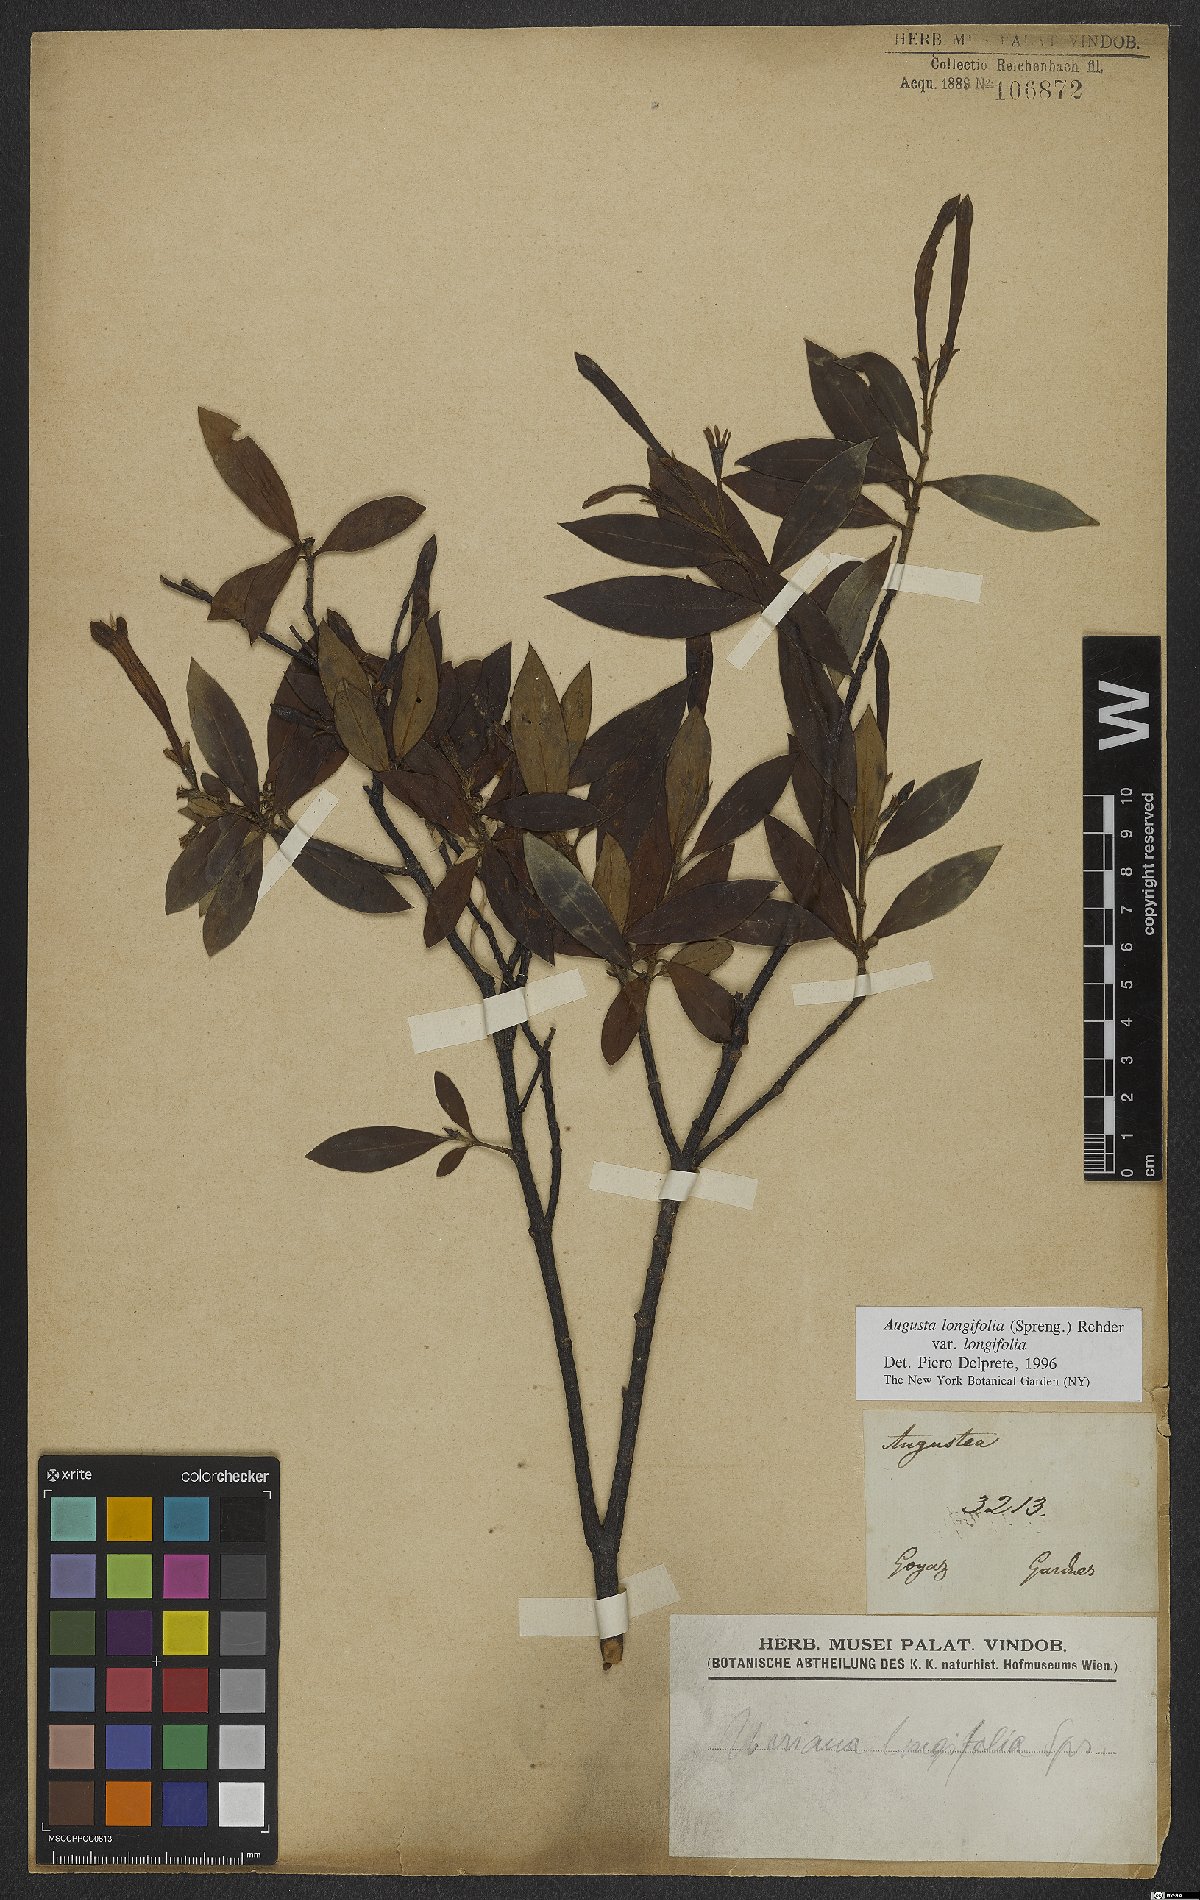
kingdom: Plantae
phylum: Tracheophyta
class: Magnoliopsida
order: Gentianales
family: Rubiaceae
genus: Augusta
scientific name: Augusta longifolia
